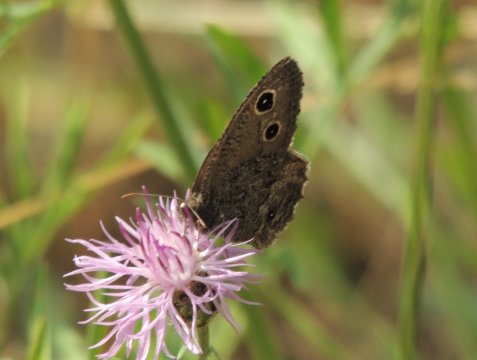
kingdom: Animalia
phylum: Arthropoda
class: Insecta
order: Lepidoptera
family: Nymphalidae
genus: Cercyonis
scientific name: Cercyonis sthenele
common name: Great Basin Wood-Nymph
